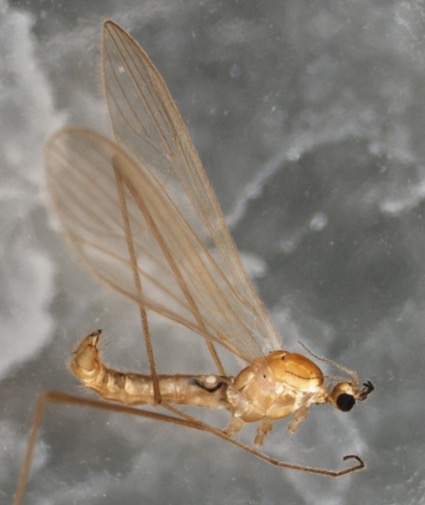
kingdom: Animalia
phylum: Arthropoda
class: Insecta
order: Diptera
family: Limoniidae
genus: Erioptera
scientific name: Erioptera griseipennis
